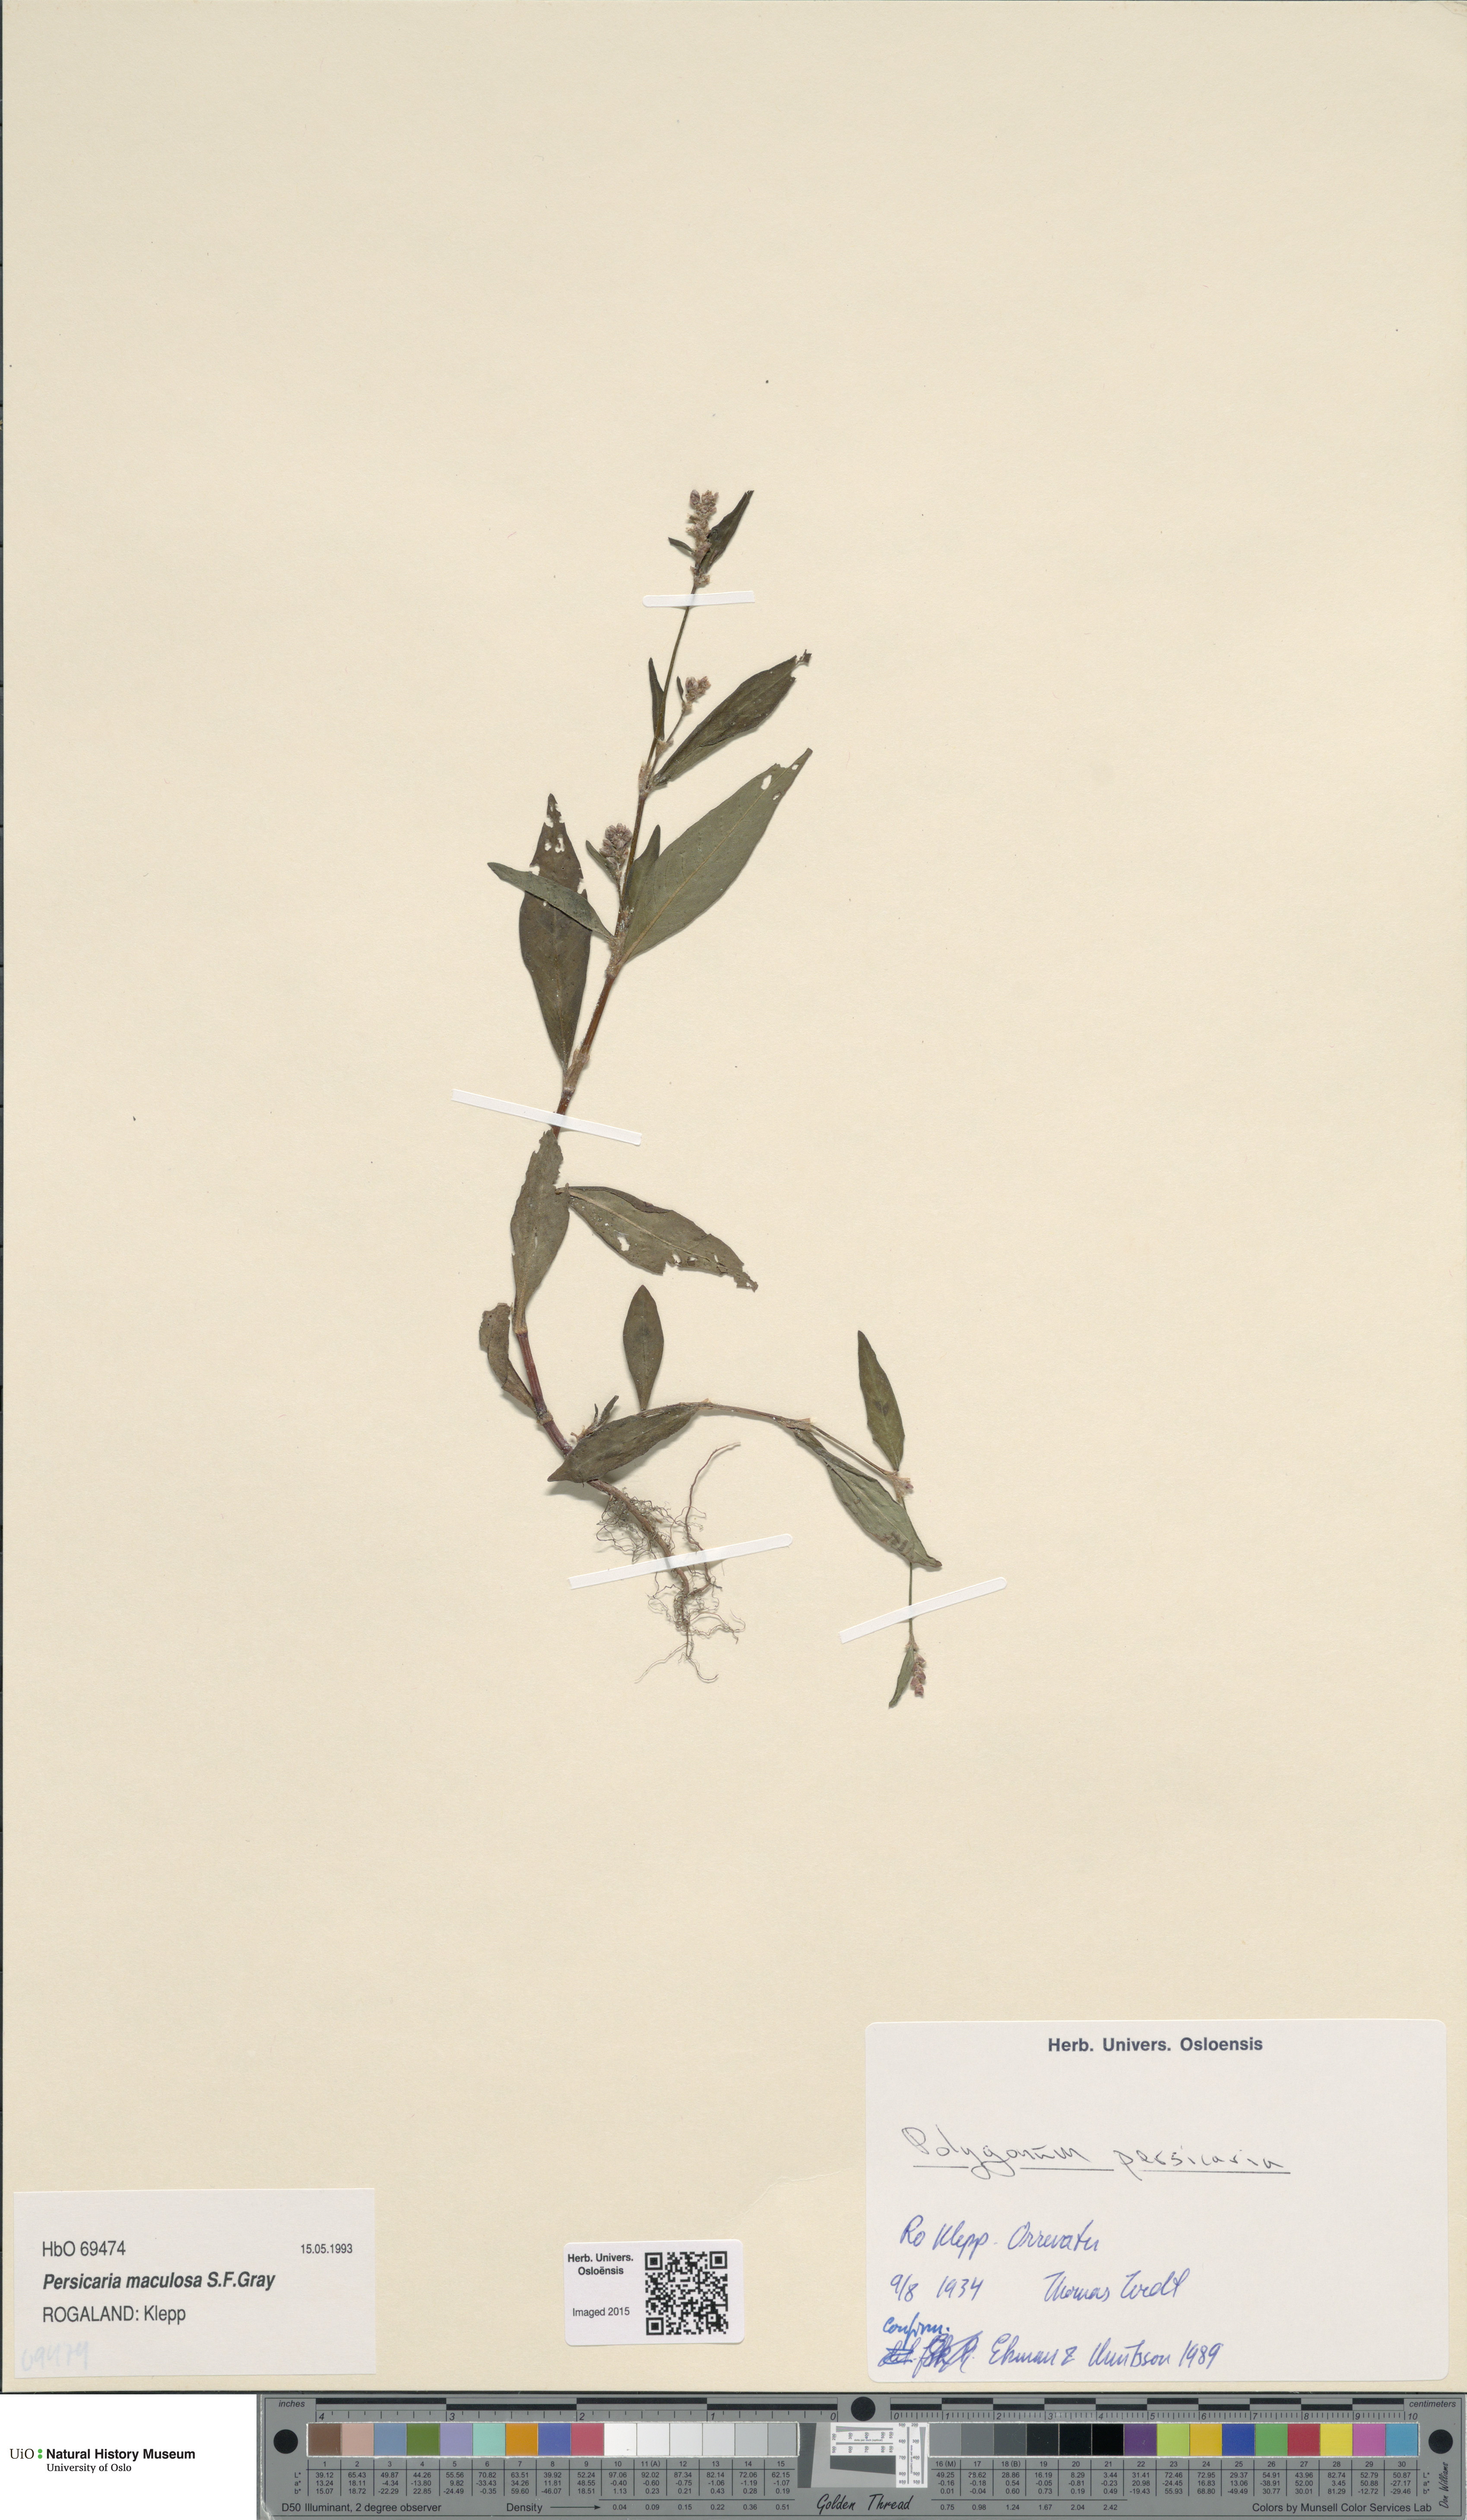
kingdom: Plantae
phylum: Tracheophyta
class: Magnoliopsida
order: Caryophyllales
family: Polygonaceae
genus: Persicaria
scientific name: Persicaria maculosa
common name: Redshank
